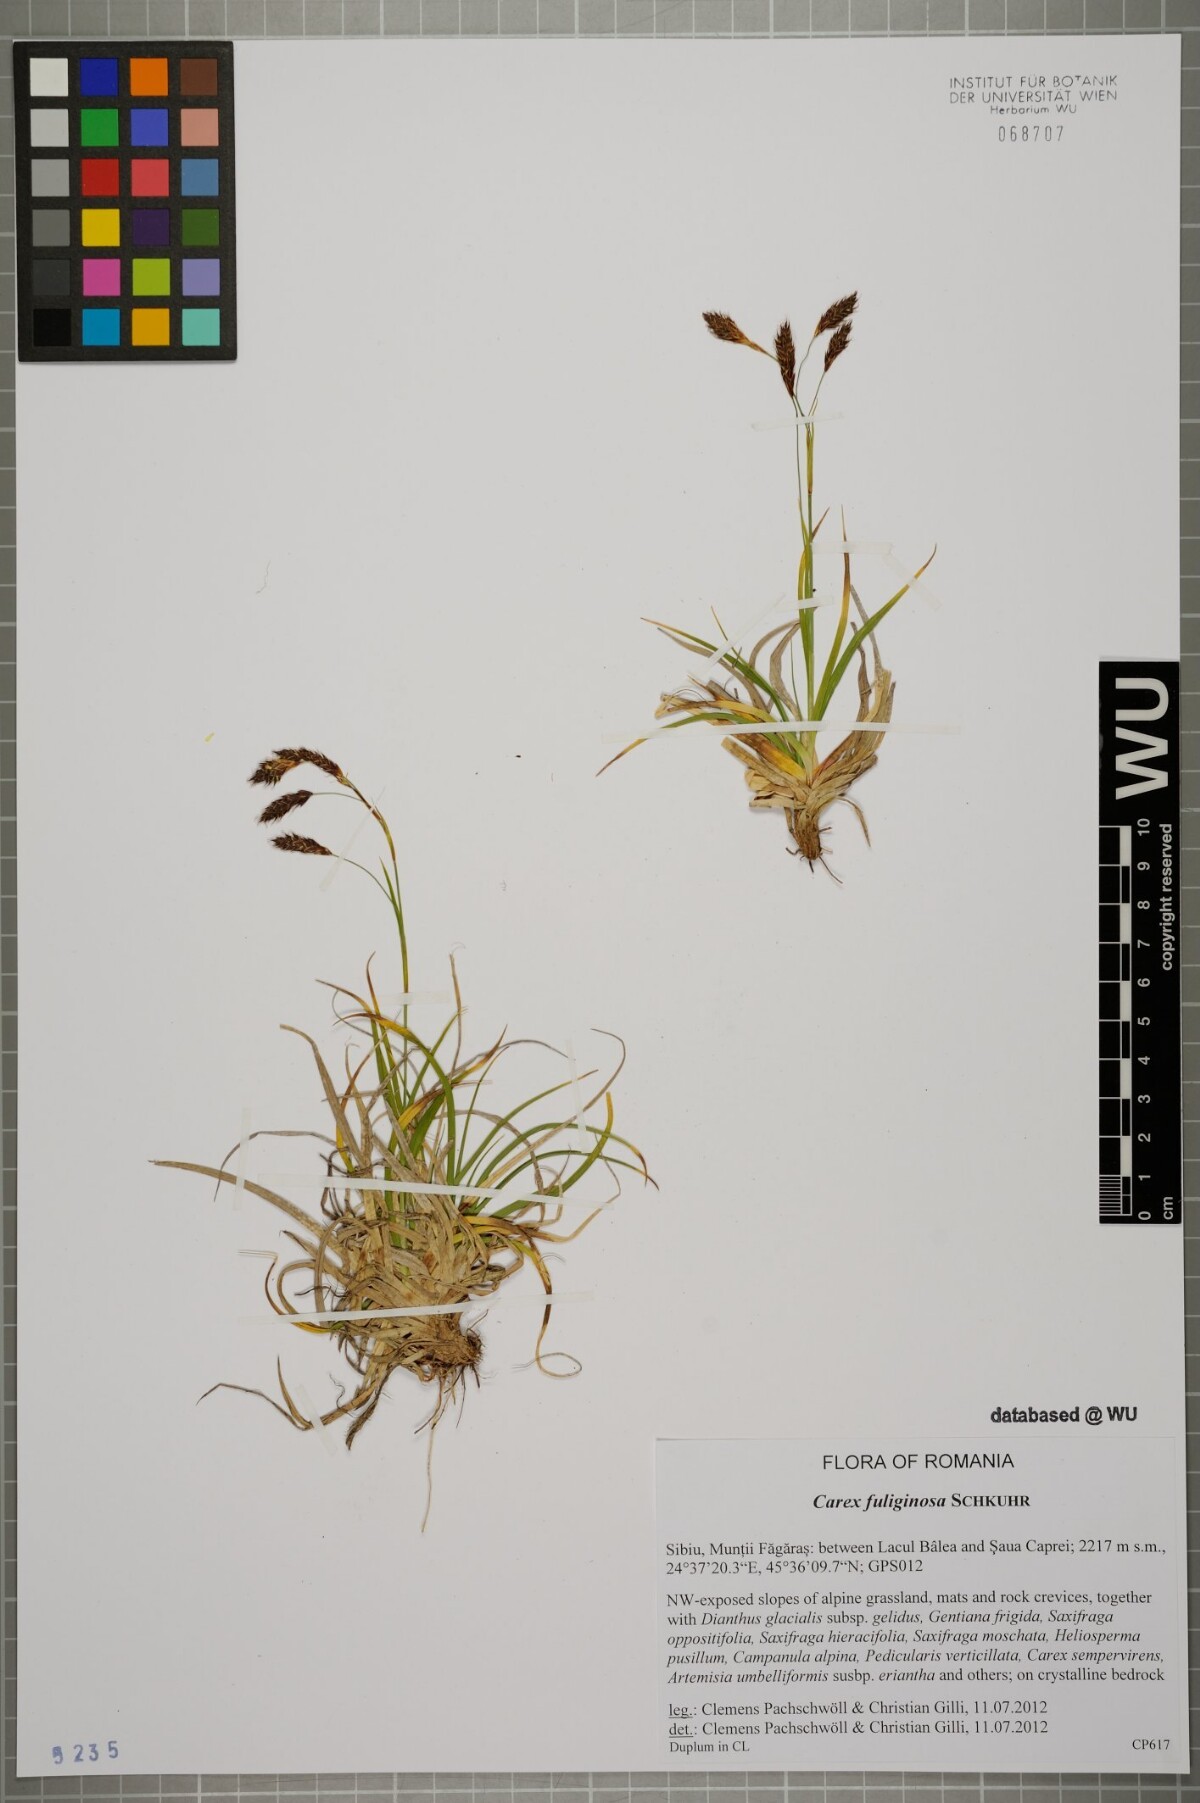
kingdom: Plantae
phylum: Tracheophyta
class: Liliopsida
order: Poales
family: Cyperaceae
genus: Carex
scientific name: Carex fuliginosa
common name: Few-flowered sedge
